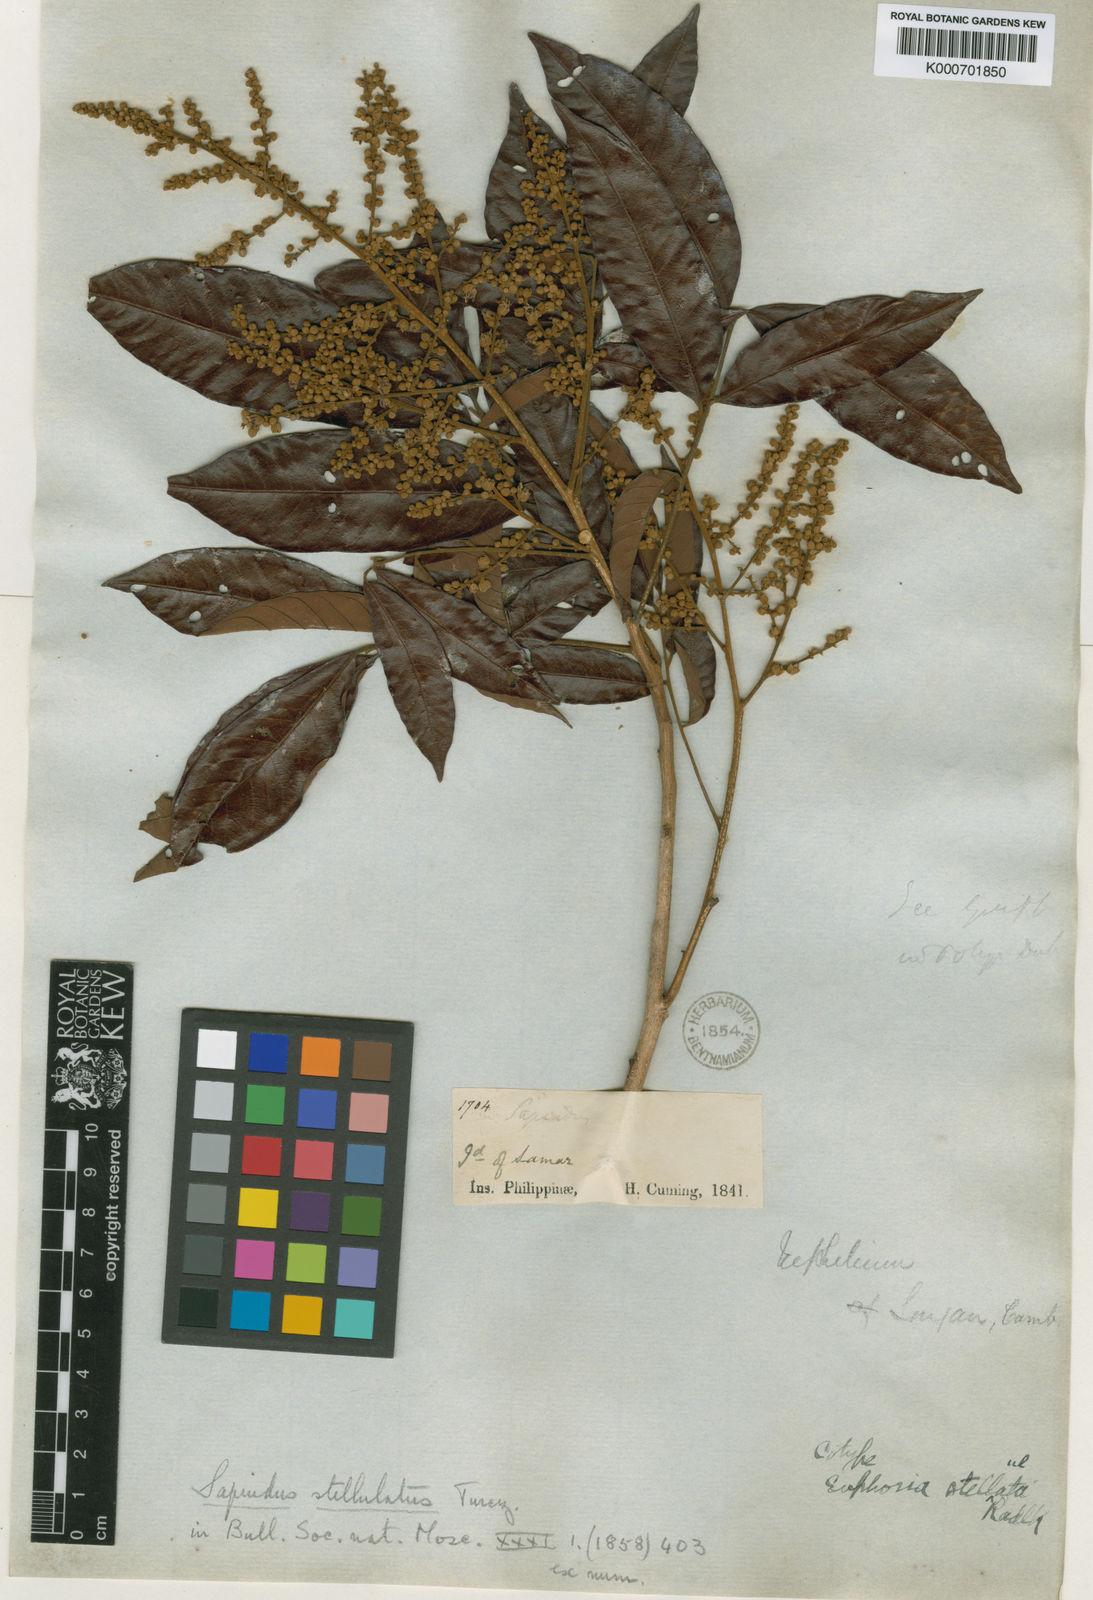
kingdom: Plantae
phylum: Tracheophyta
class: Magnoliopsida
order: Sapindales
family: Sapindaceae
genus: Dimocarpus
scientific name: Dimocarpus longan
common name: Longan
